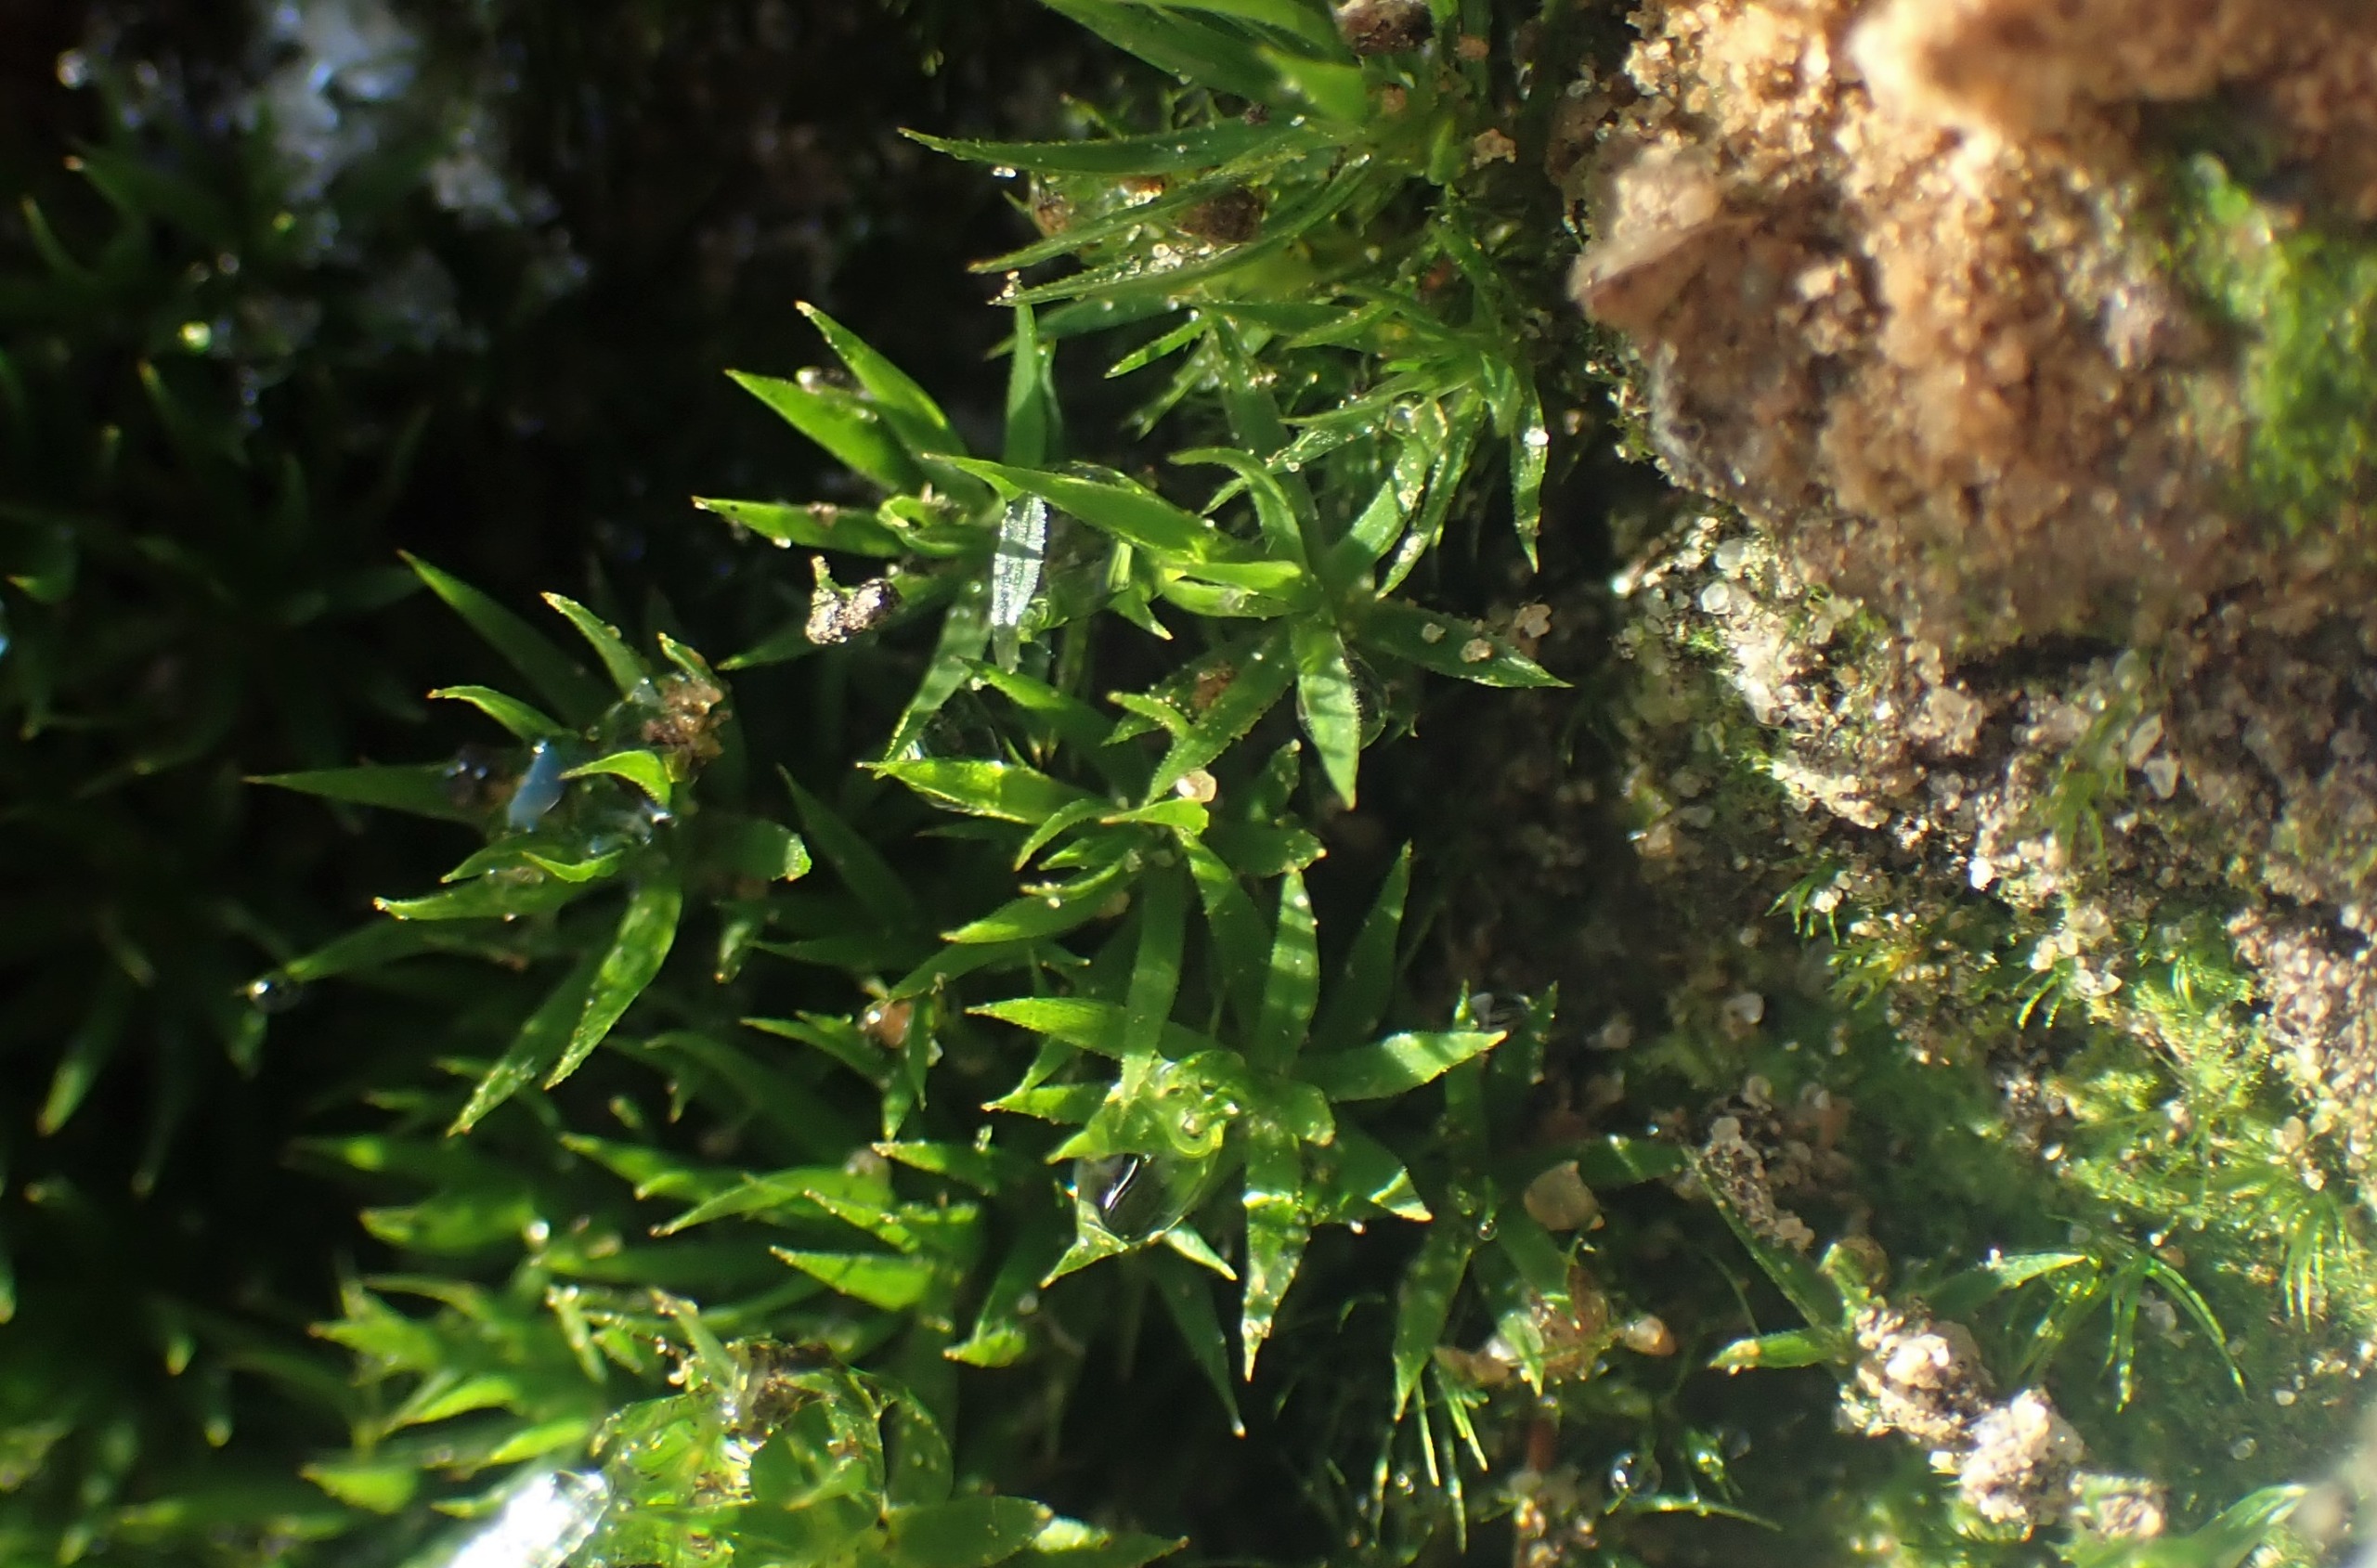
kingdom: Plantae
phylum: Bryophyta
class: Polytrichopsida
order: Polytrichales
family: Polytrichaceae
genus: Polytrichum
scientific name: Polytrichum formosum
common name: Skov-jomfruhår
